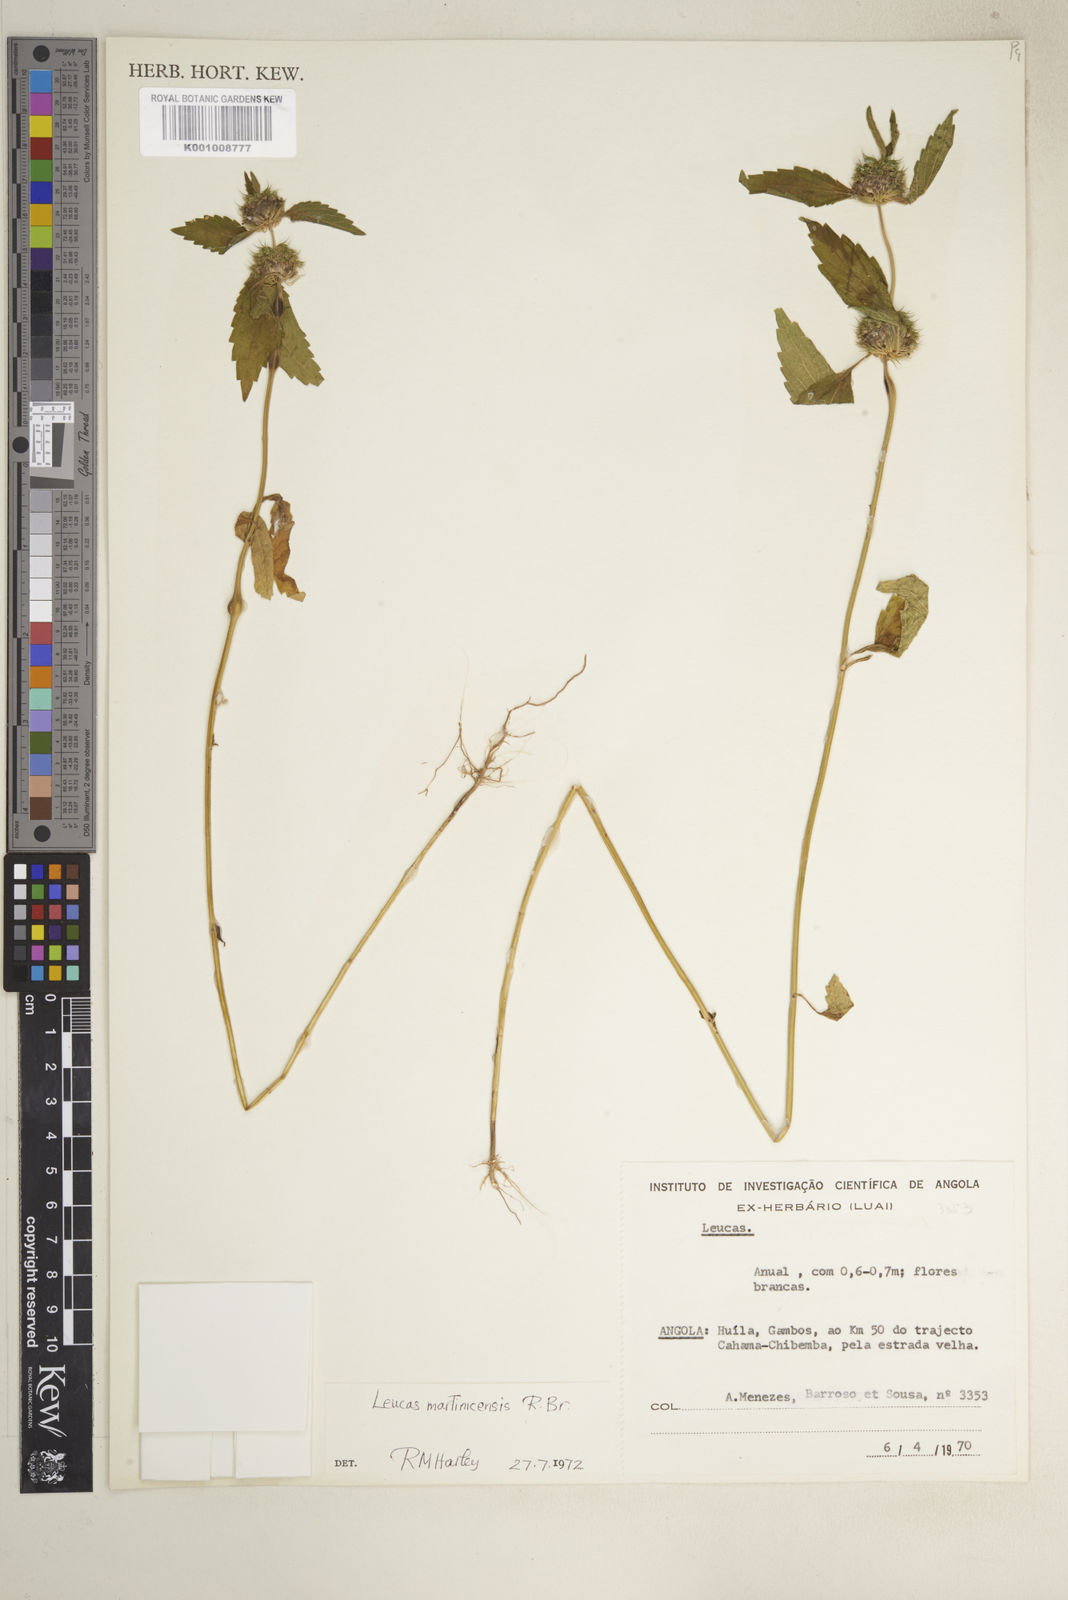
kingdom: Plantae
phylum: Tracheophyta
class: Magnoliopsida
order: Lamiales
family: Lamiaceae
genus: Leucas
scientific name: Leucas martinicensis
